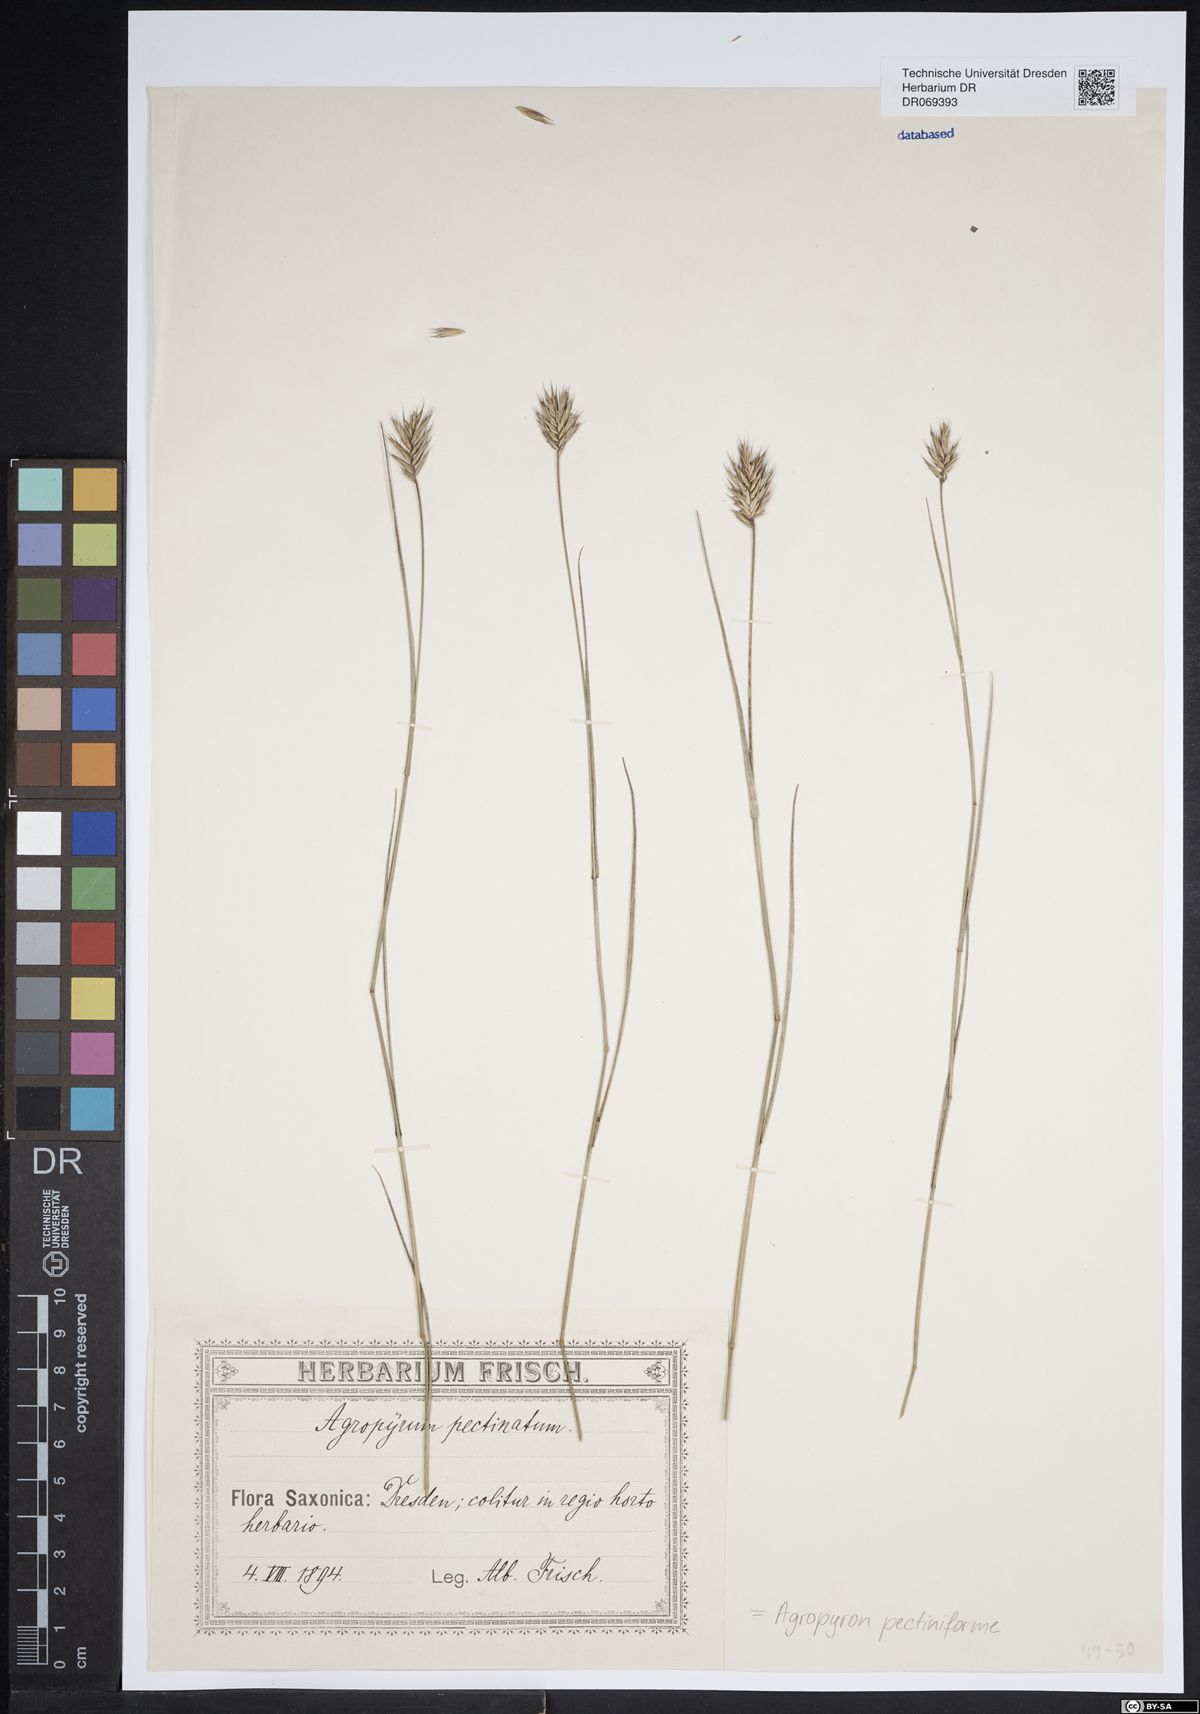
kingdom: Plantae
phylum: Tracheophyta
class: Liliopsida
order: Poales
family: Poaceae
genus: Agropyron
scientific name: Agropyron cristatum
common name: Crested wheatgrass
